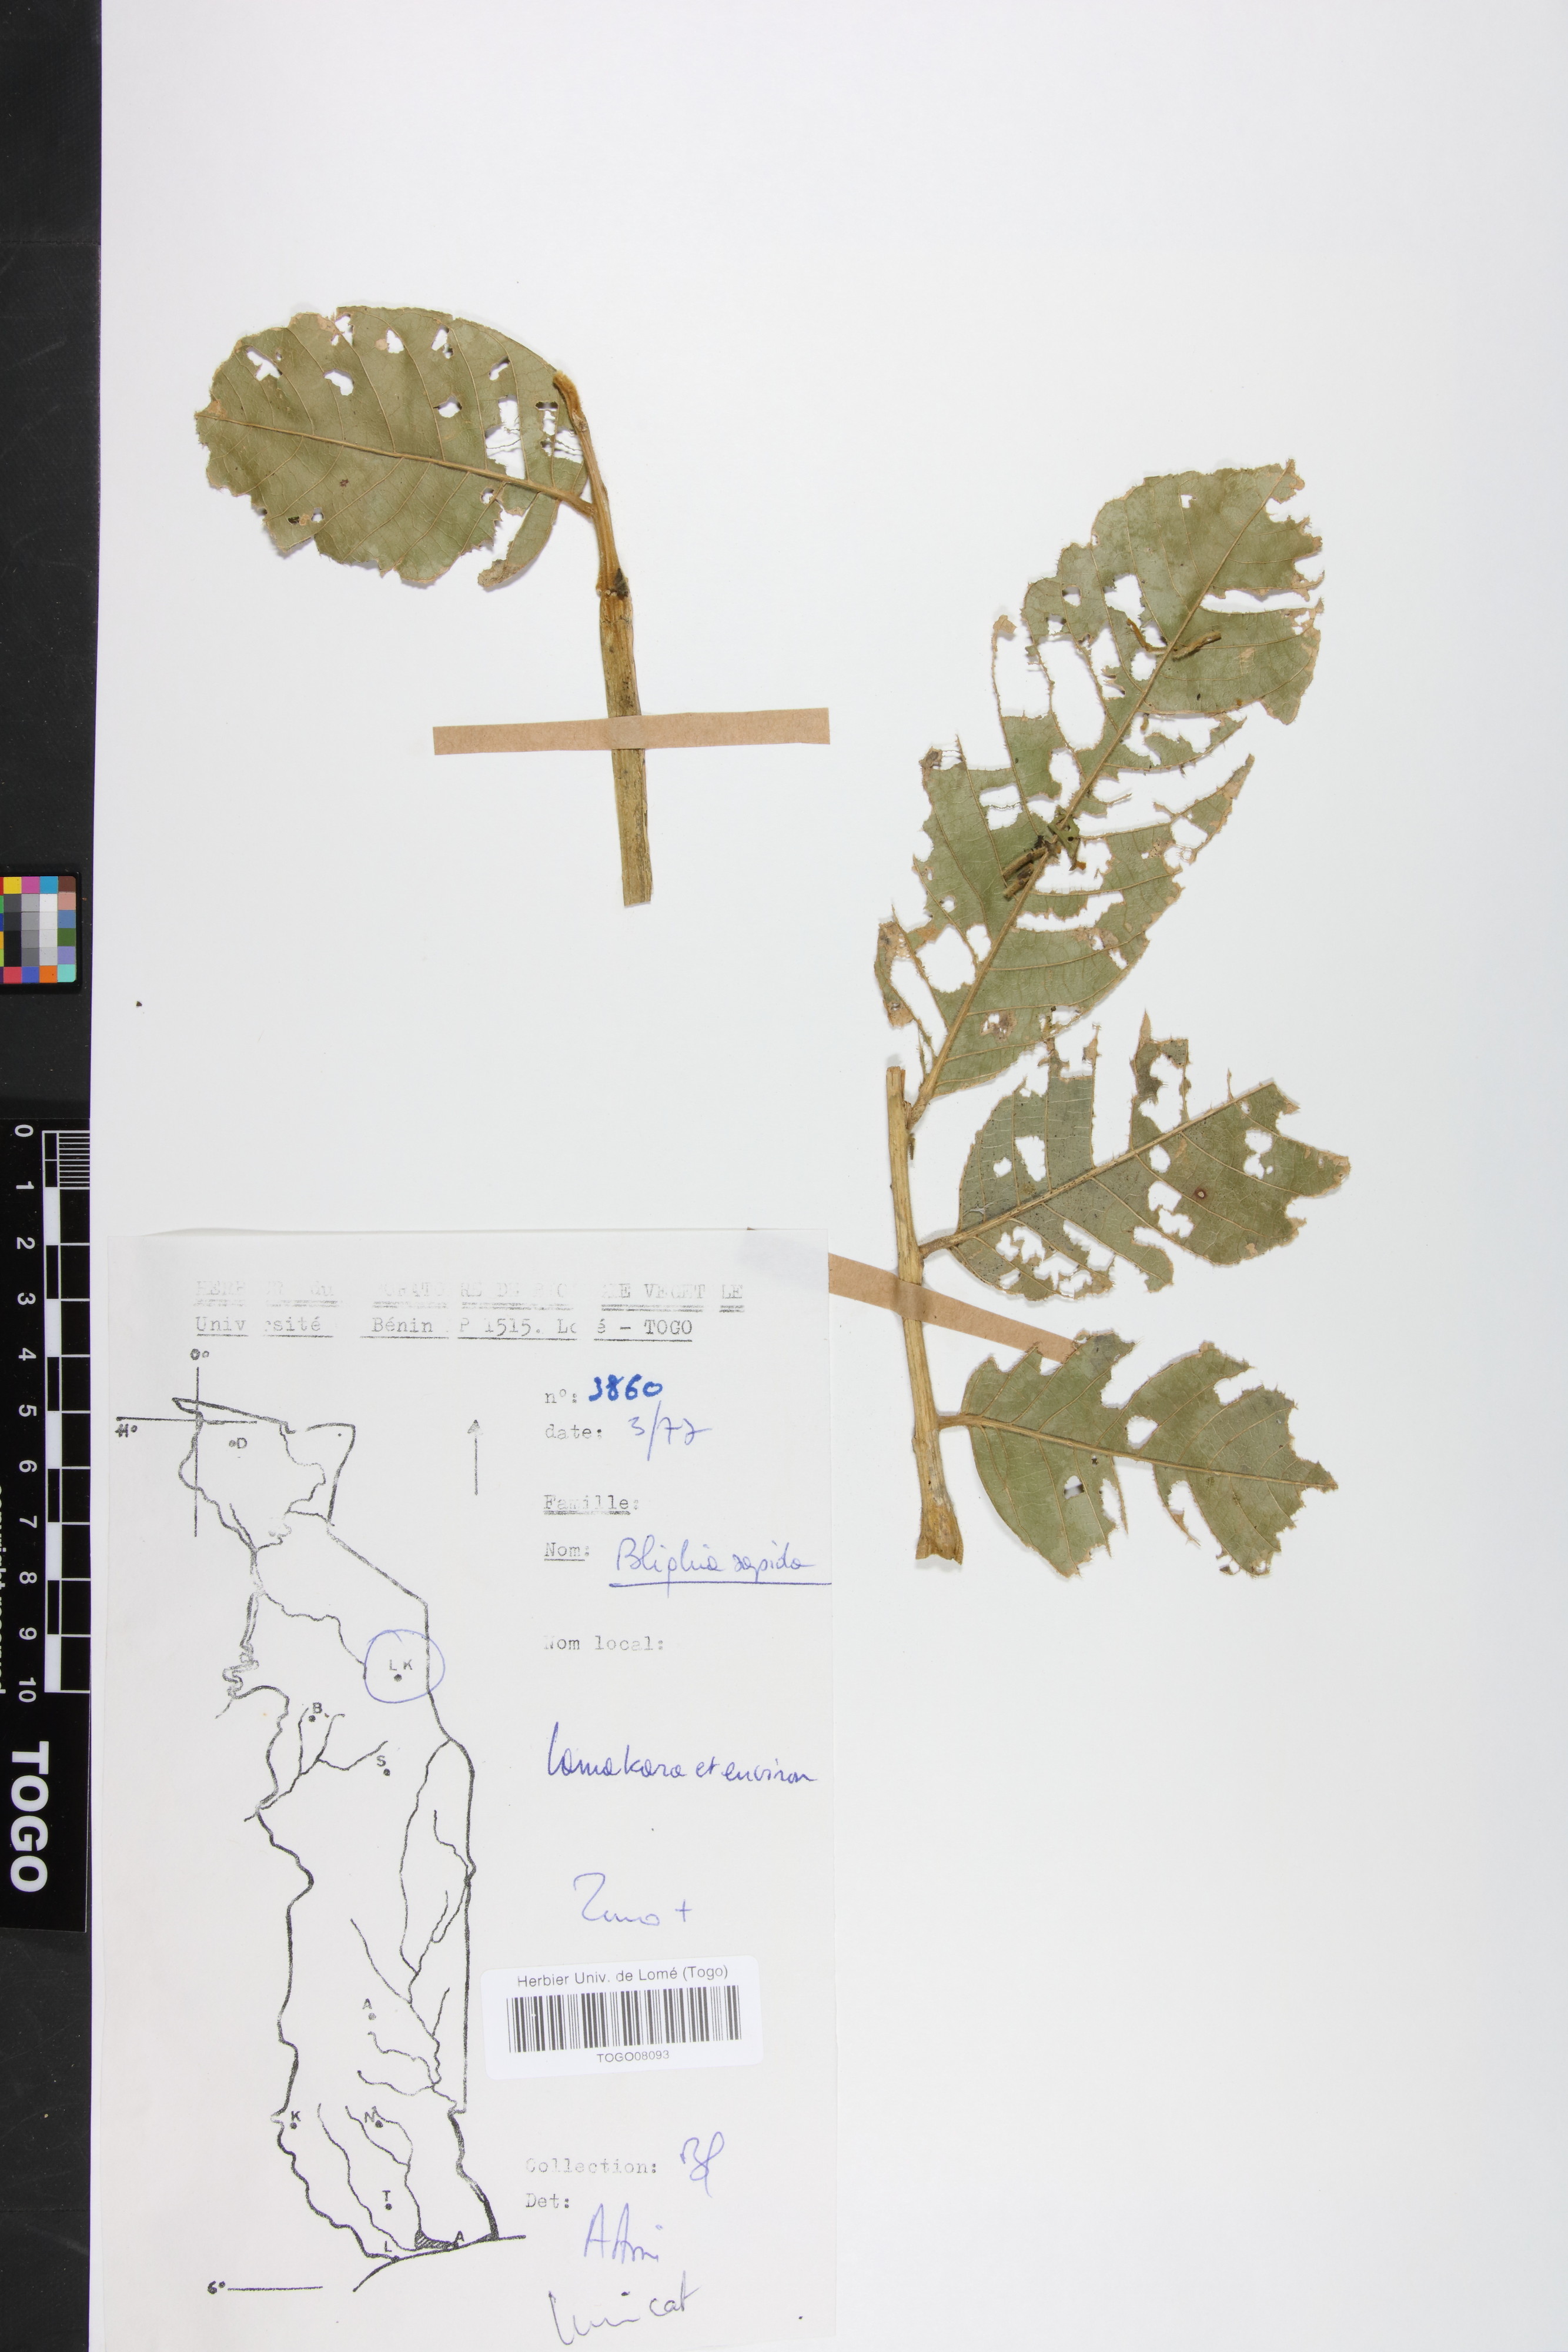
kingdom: Plantae
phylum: Tracheophyta
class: Magnoliopsida
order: Sapindales
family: Sapindaceae
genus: Blighia
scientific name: Blighia sapida
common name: Akee
